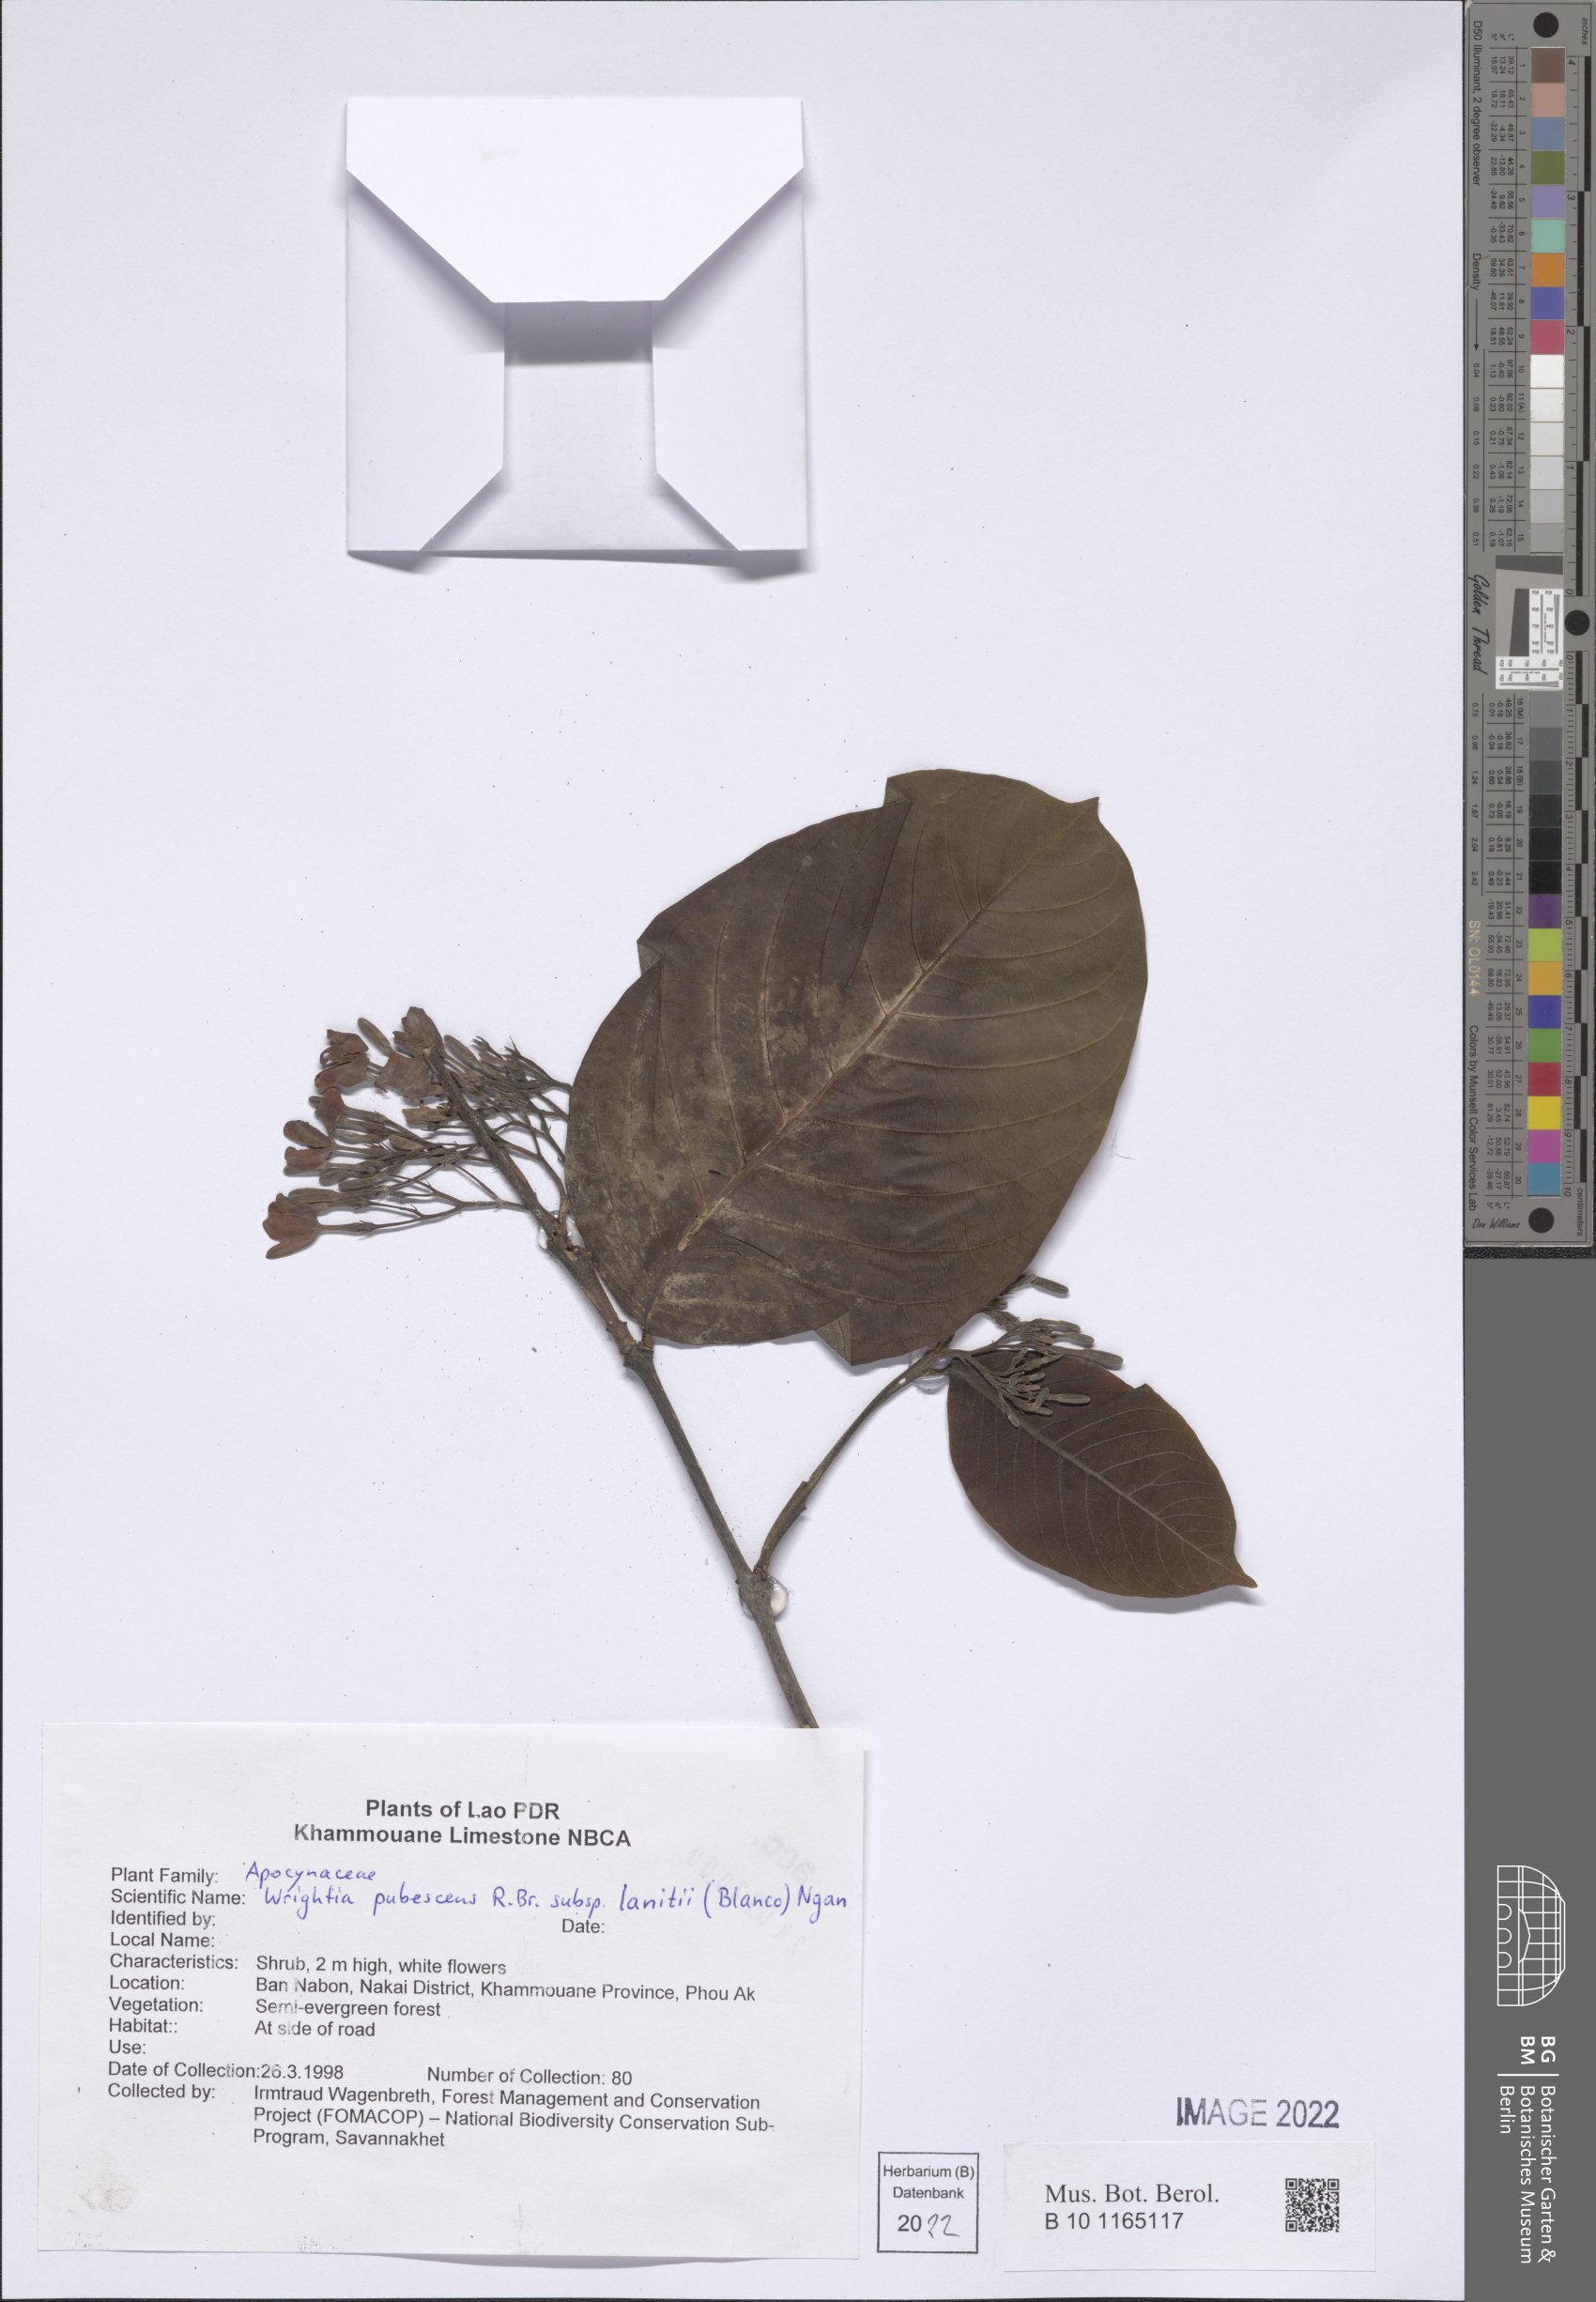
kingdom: Plantae
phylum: Tracheophyta
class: Magnoliopsida
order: Gentianales
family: Apocynaceae
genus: Wrightia
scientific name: Wrightia pubescens
